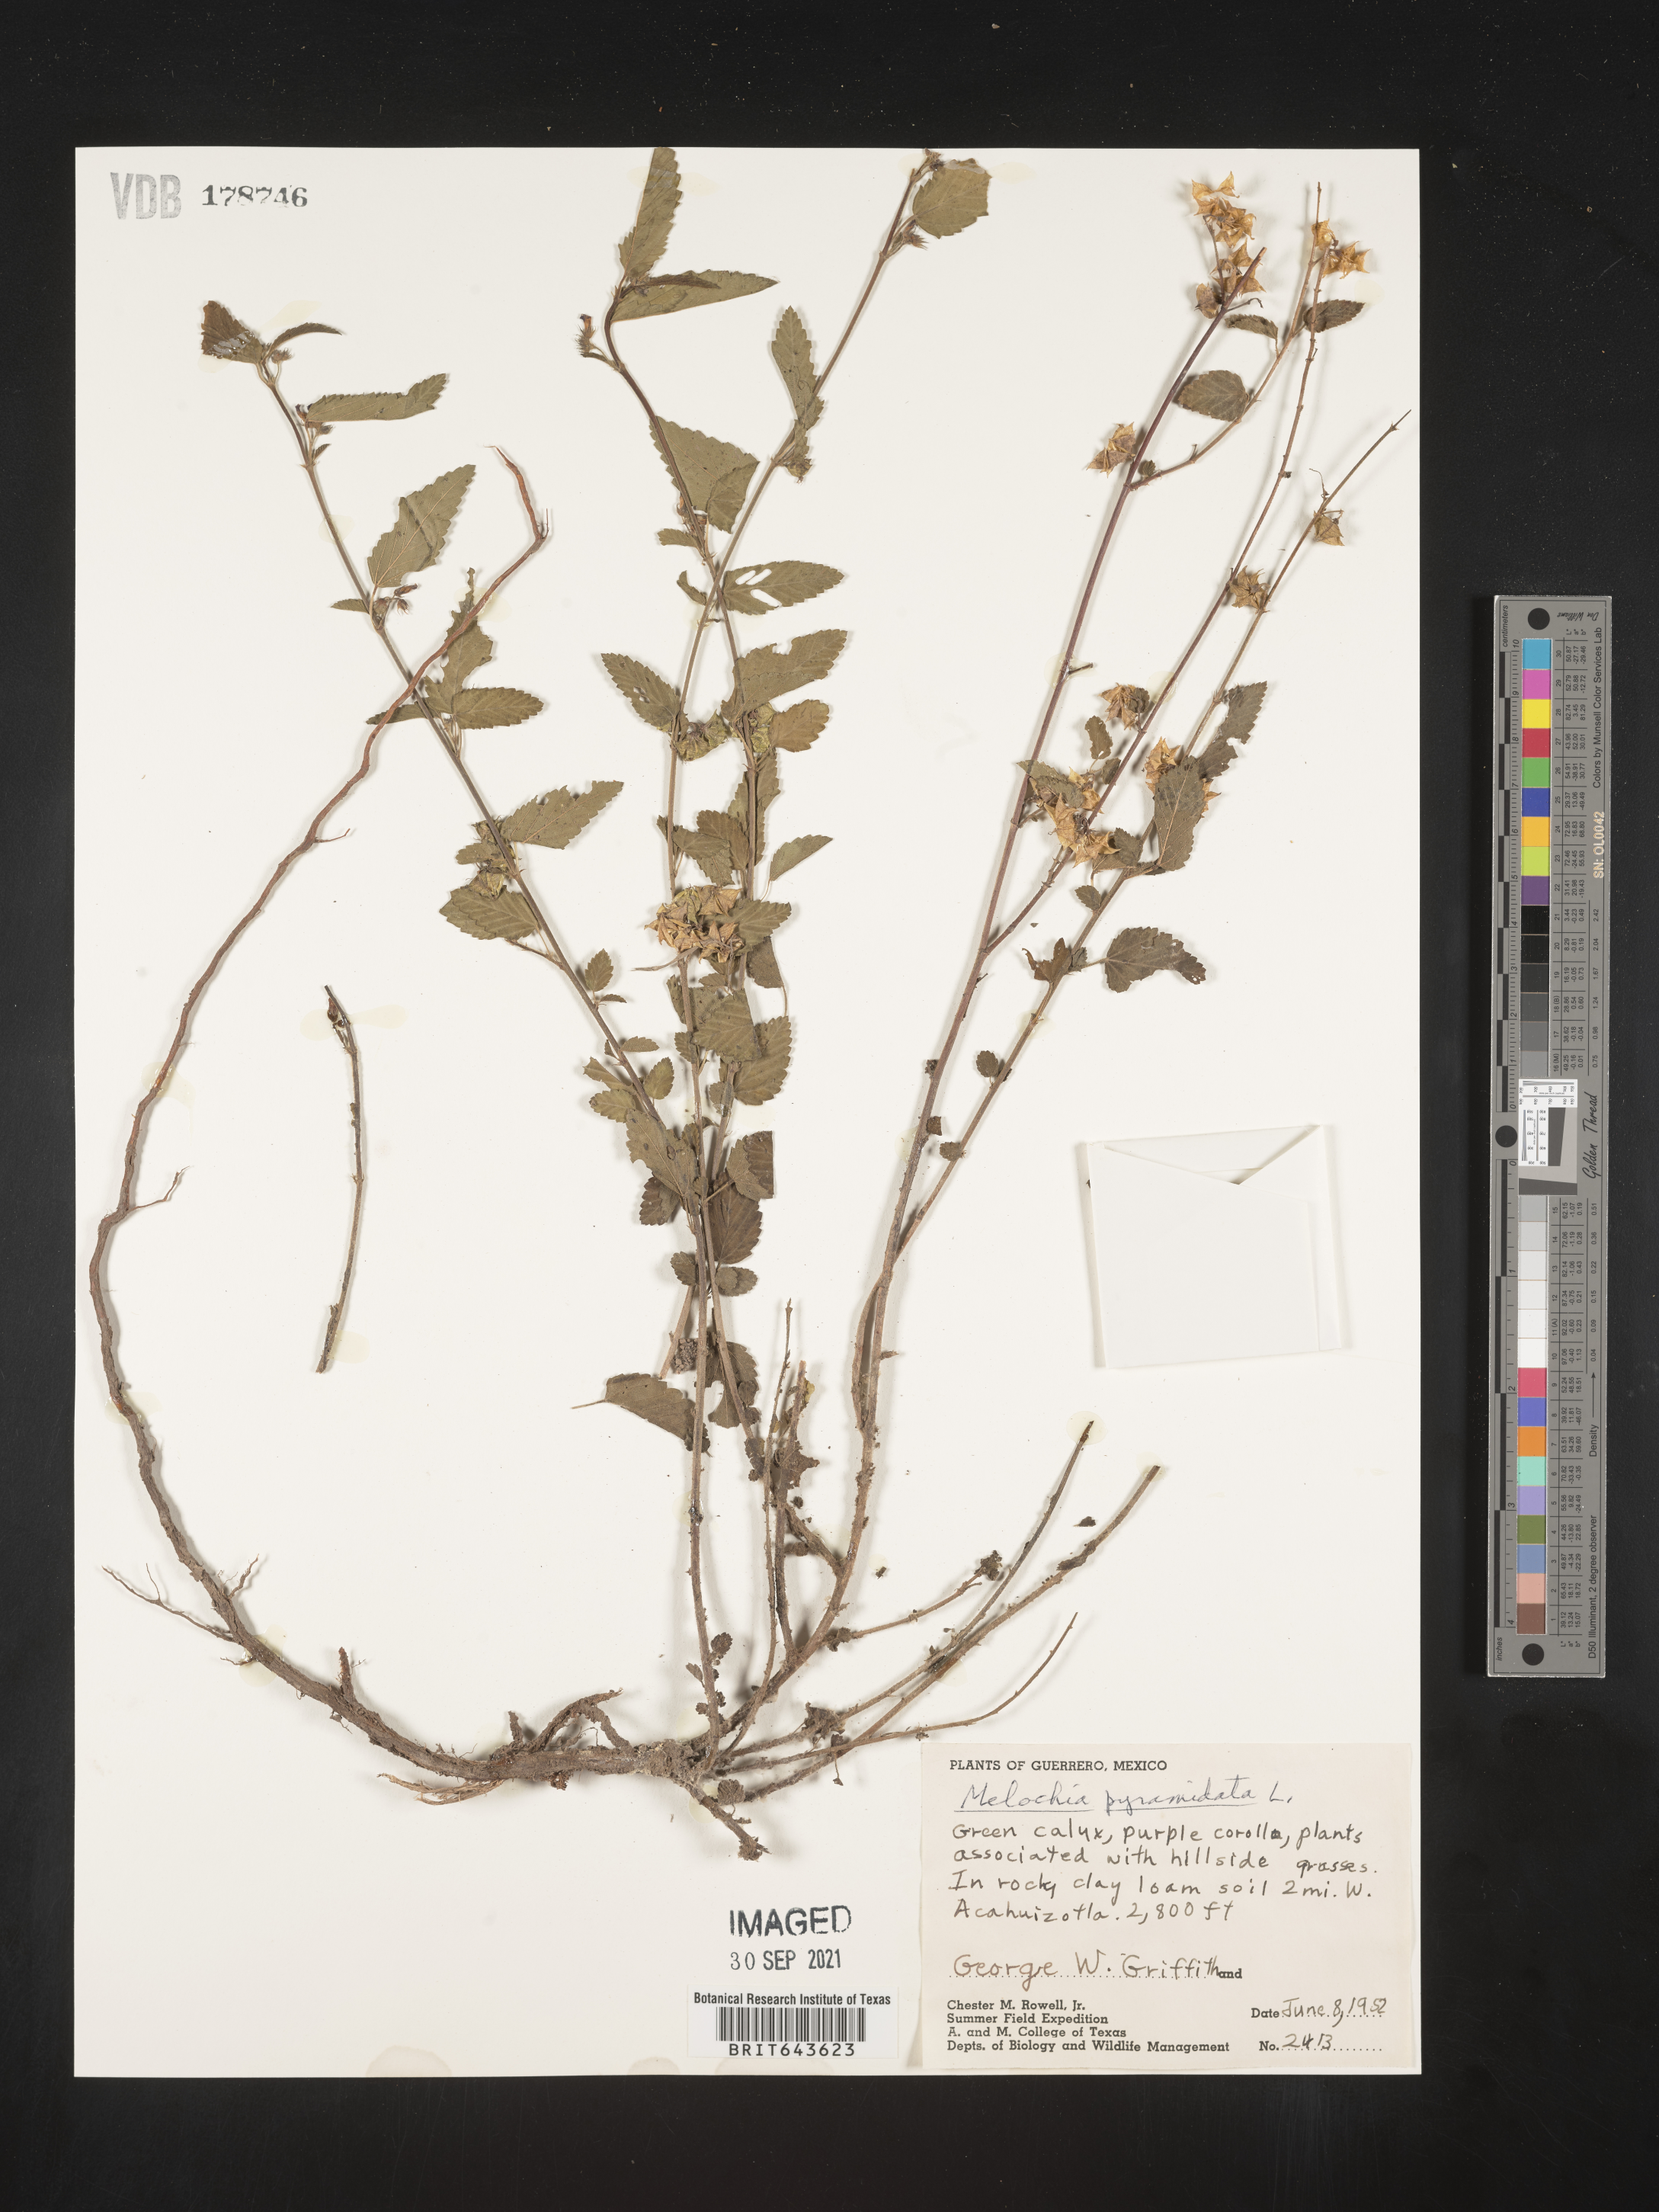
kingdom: Plantae
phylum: Tracheophyta
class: Magnoliopsida
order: Malvales
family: Malvaceae
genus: Melochia
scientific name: Melochia
